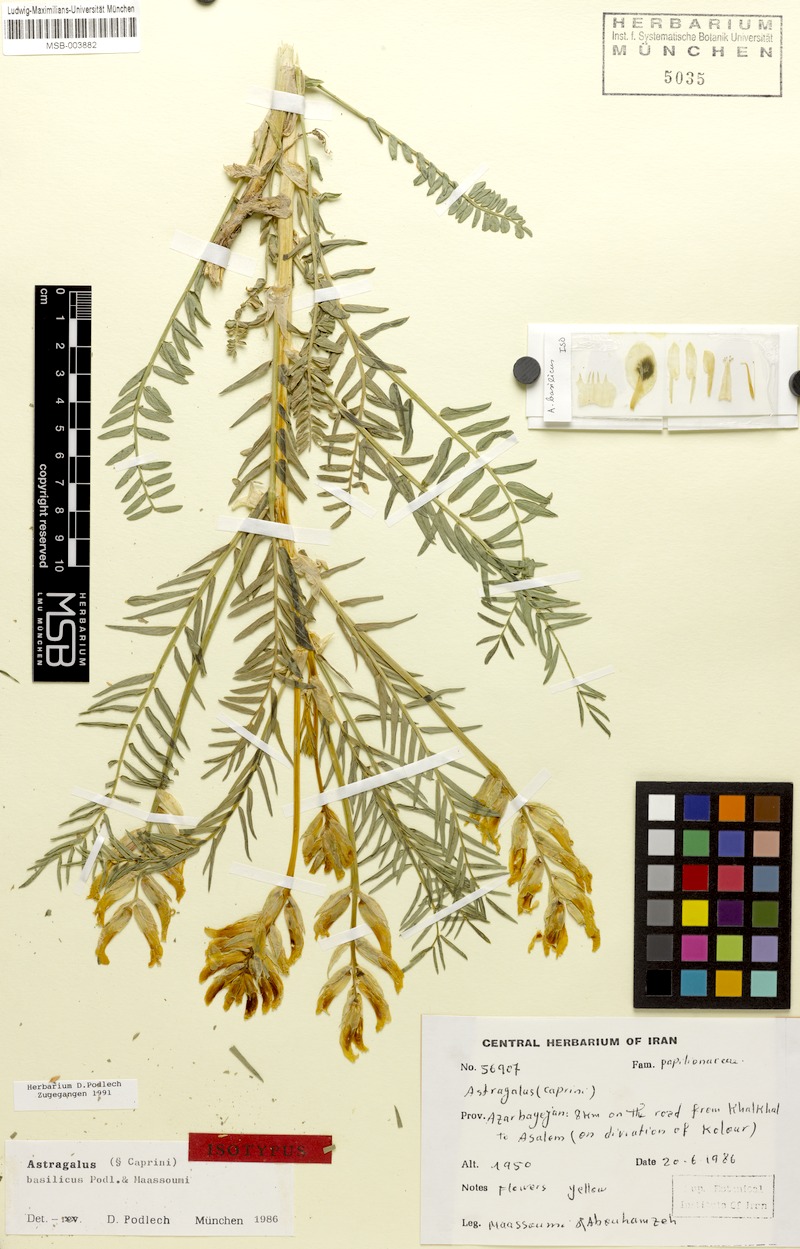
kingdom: Plantae
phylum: Tracheophyta
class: Magnoliopsida
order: Fabales
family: Fabaceae
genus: Astragalus
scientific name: Astragalus basilicus
